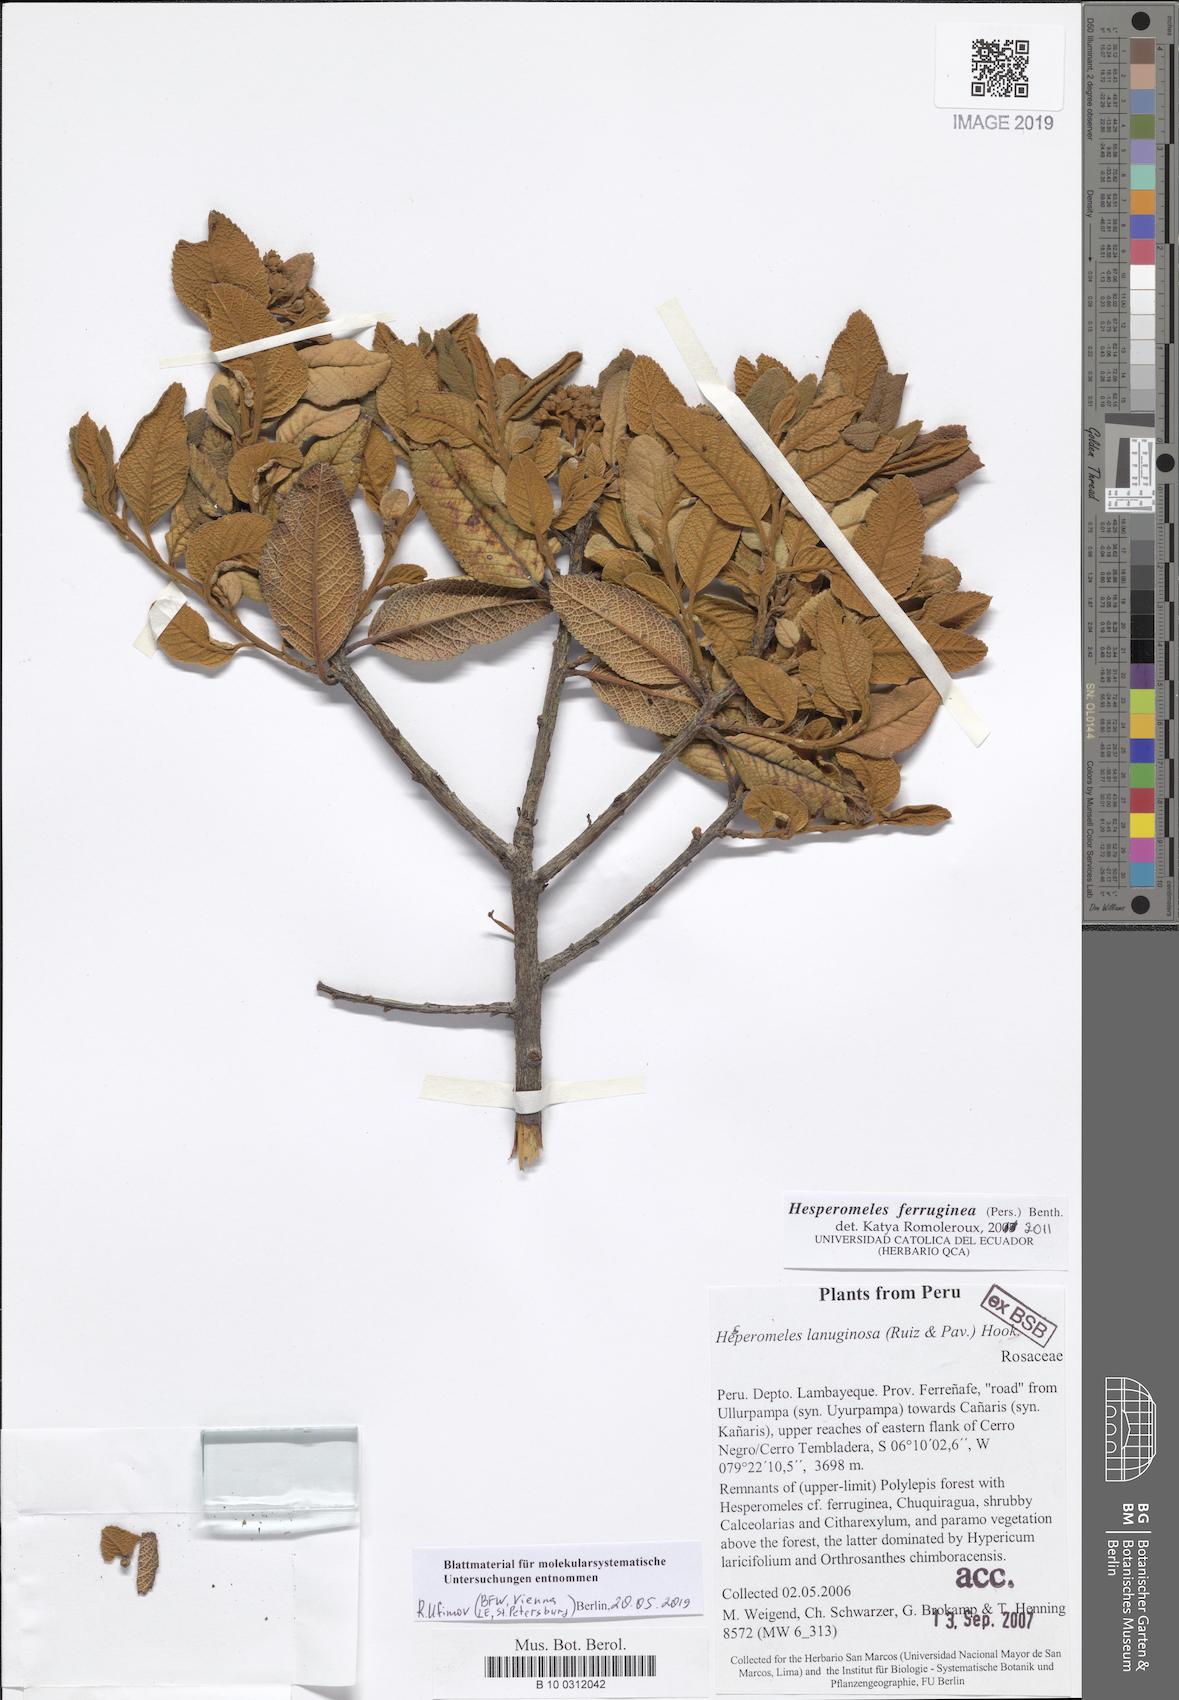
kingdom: Plantae
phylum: Tracheophyta
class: Magnoliopsida
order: Rosales
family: Rosaceae
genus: Hesperomeles
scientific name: Hesperomeles ferruginea
